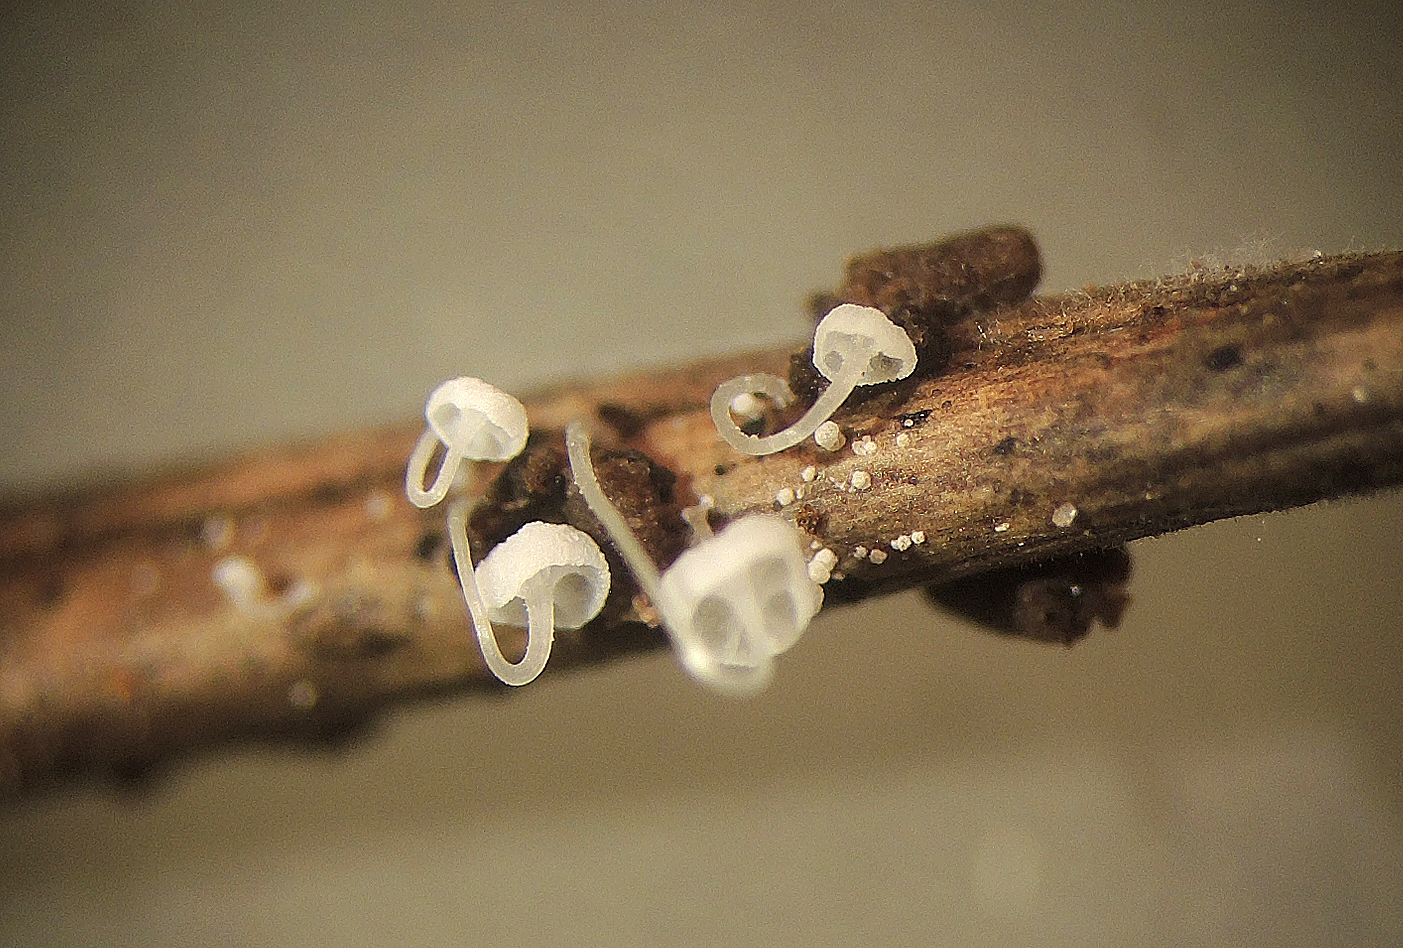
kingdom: Fungi
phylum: Basidiomycota
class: Agaricomycetes
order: Agaricales
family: Mycenaceae
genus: Hemimycena
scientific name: Hemimycena
